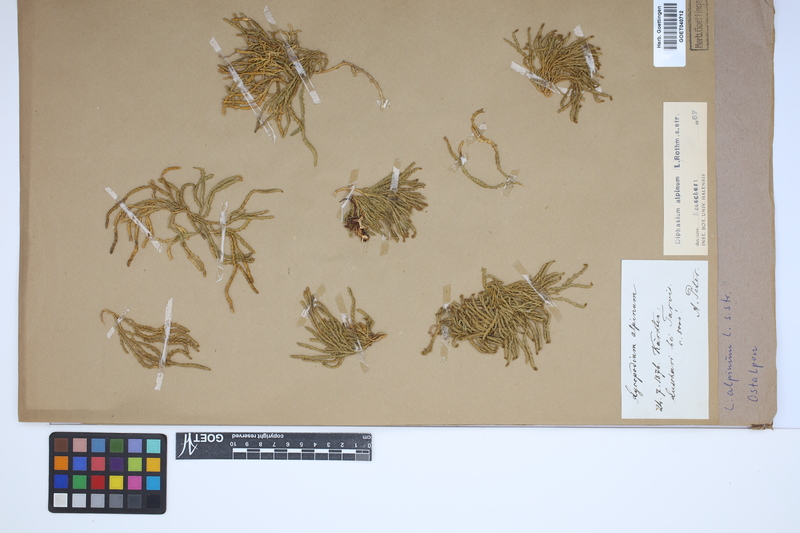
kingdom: Plantae
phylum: Tracheophyta
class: Lycopodiopsida
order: Lycopodiales
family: Lycopodiaceae
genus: Diphasiastrum
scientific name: Diphasiastrum alpinum
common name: Alpine clubmoss
